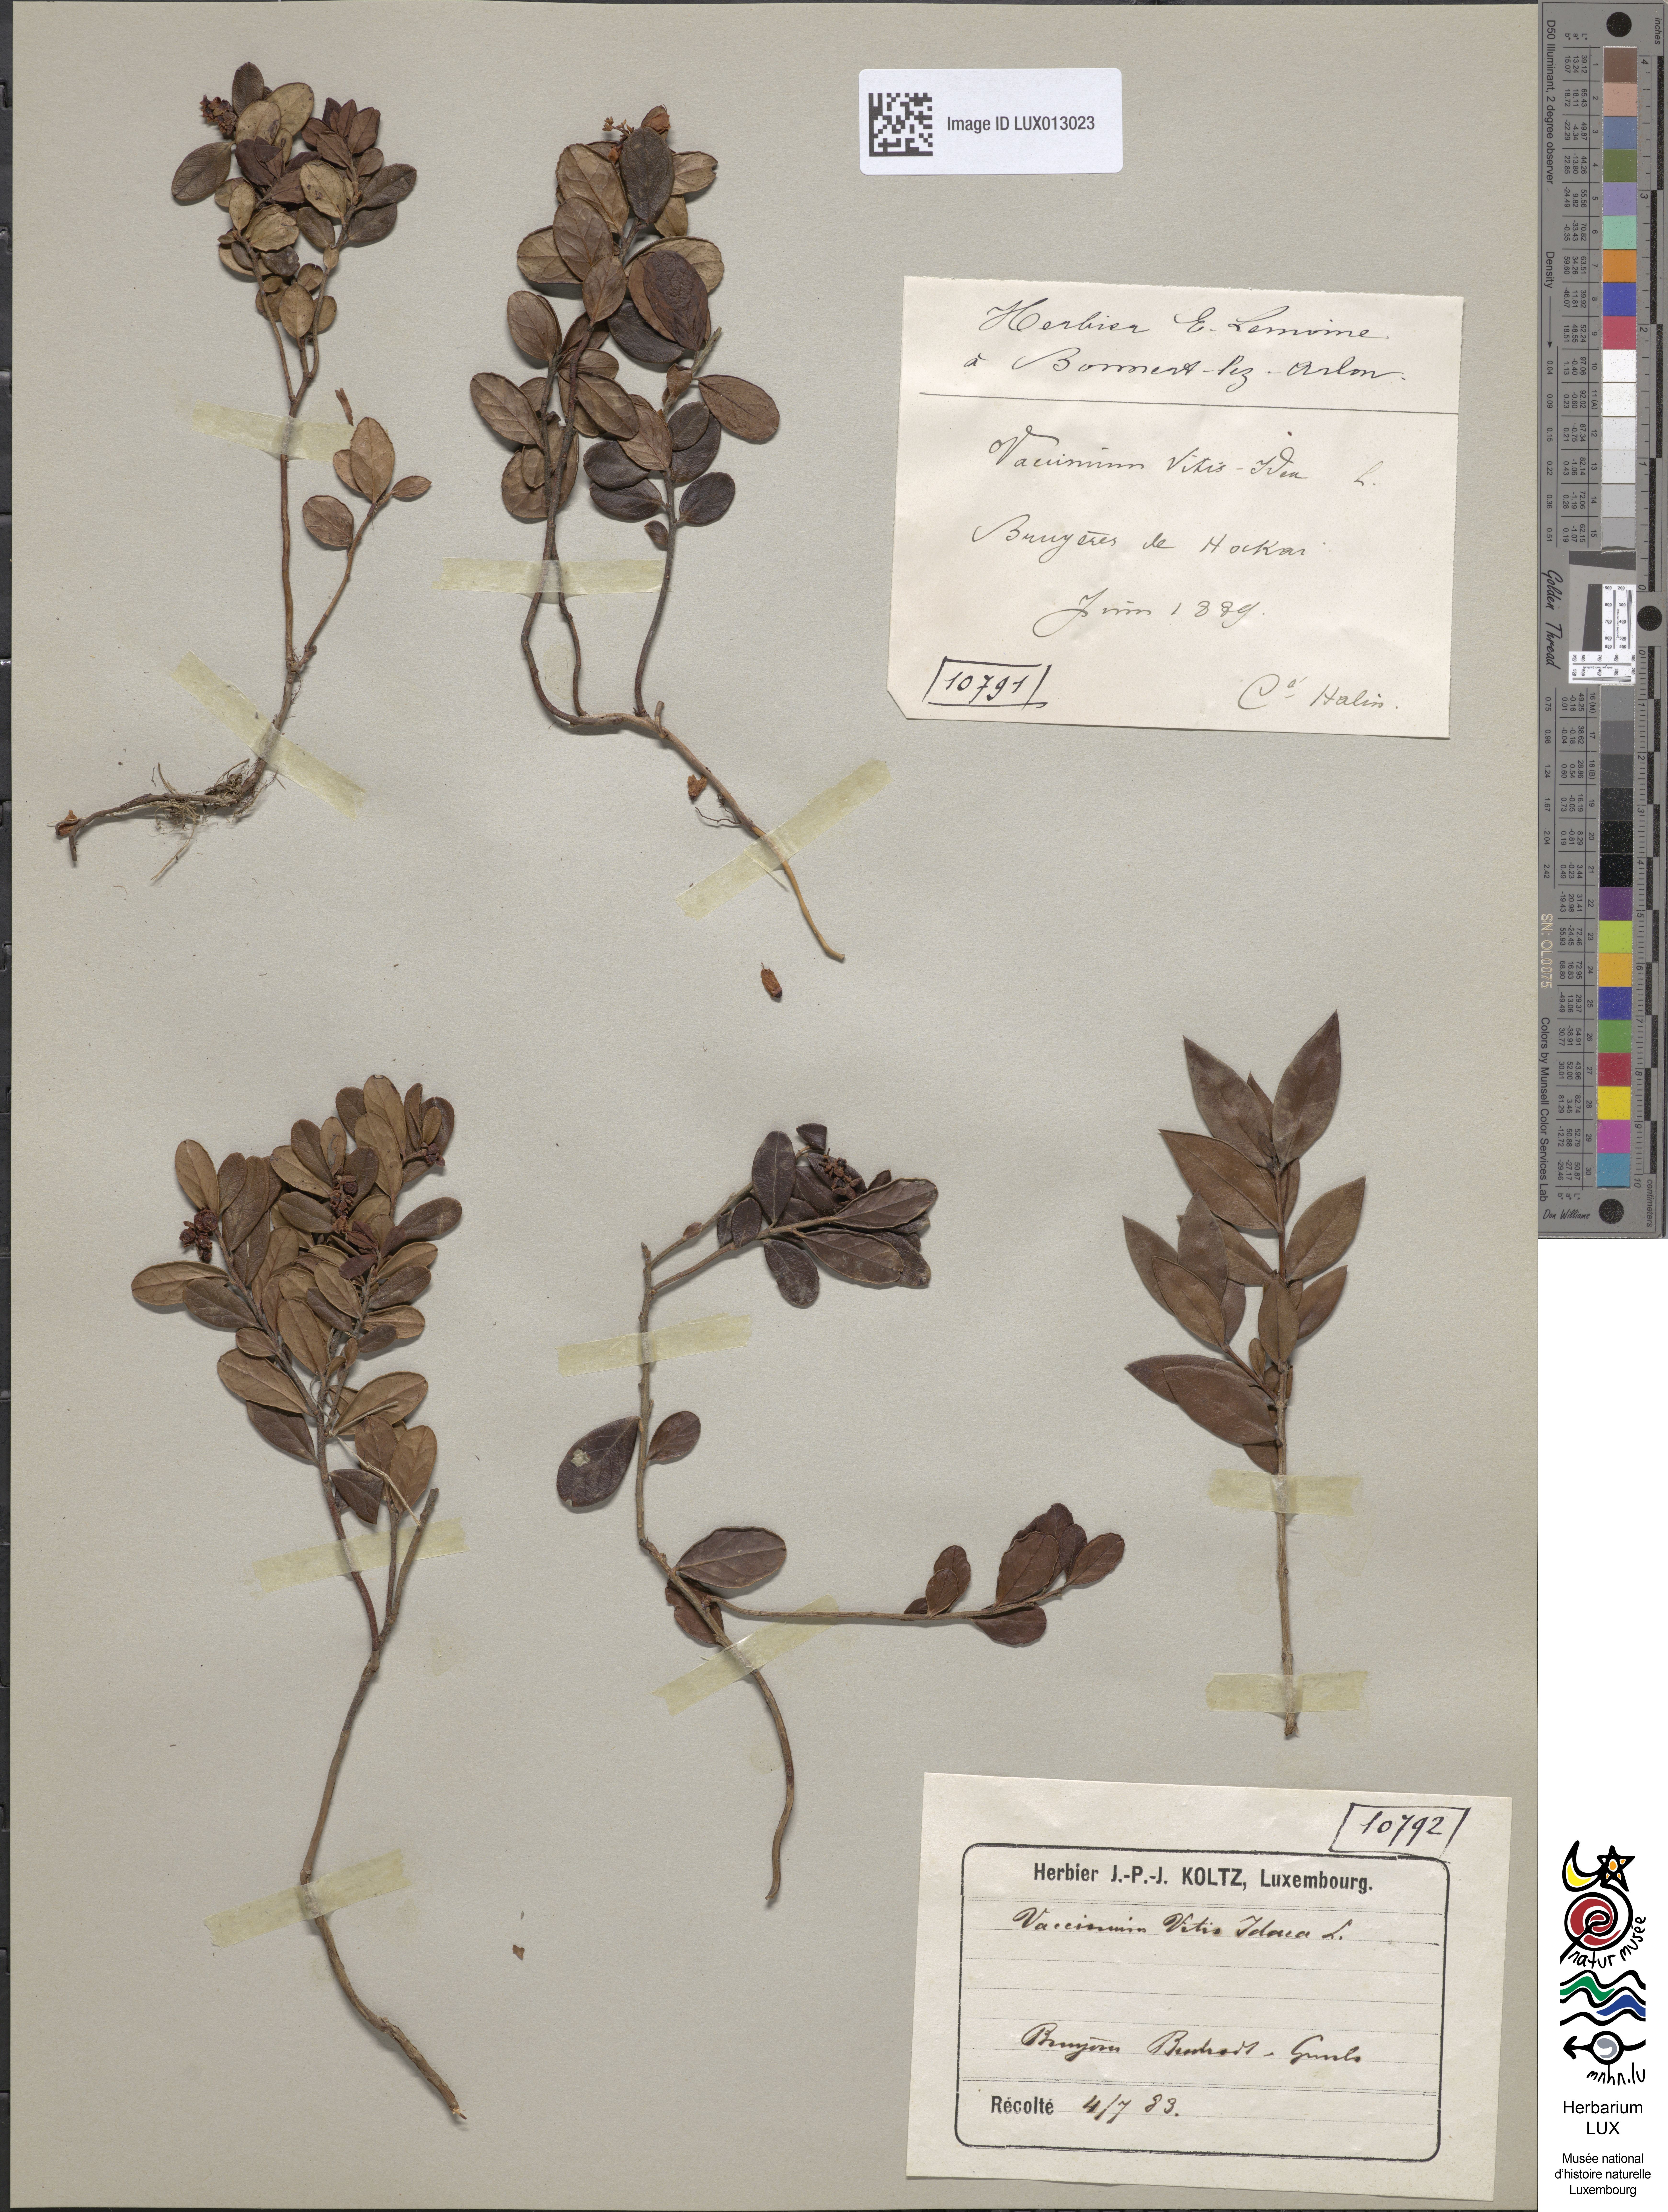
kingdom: Plantae
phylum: Tracheophyta
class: Magnoliopsida
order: Ericales
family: Ericaceae
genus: Vaccinium
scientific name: Vaccinium vitis-idaea
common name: Cowberry
